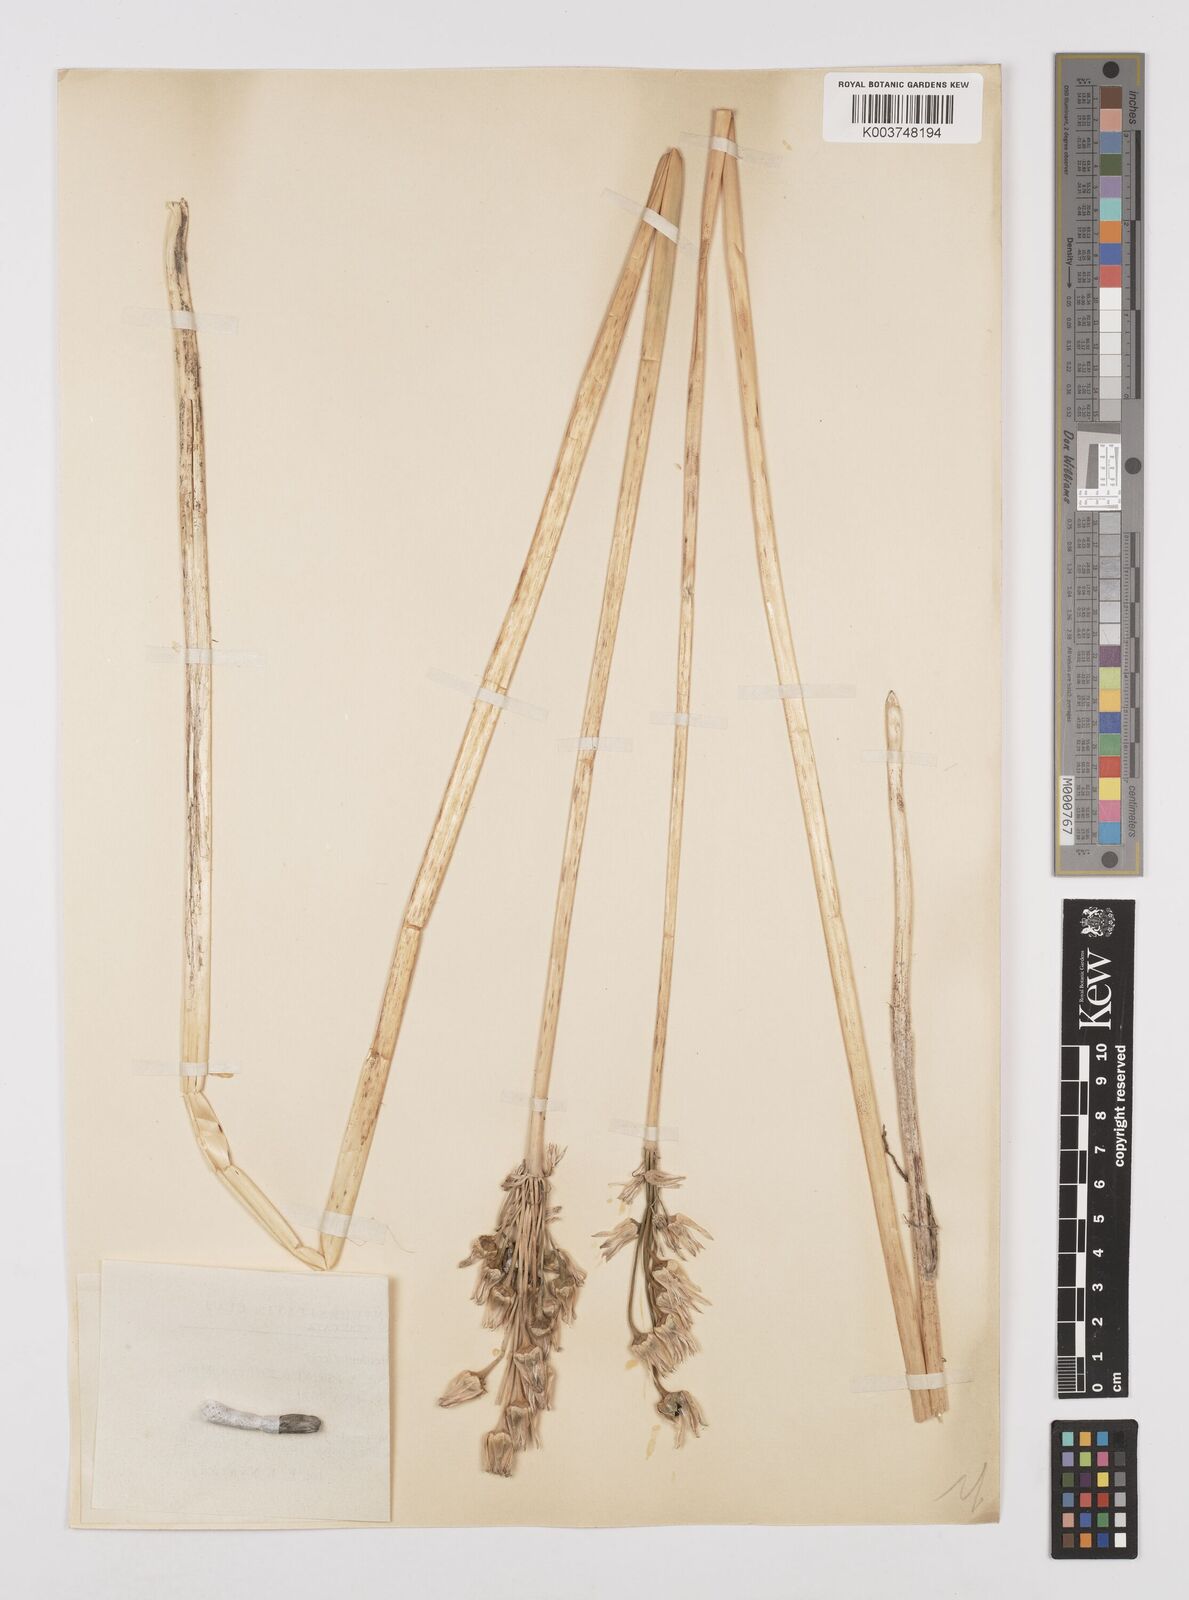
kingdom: Plantae
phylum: Tracheophyta
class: Liliopsida
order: Asparagales
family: Amaryllidaceae
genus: Allium
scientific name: Allium siculum
